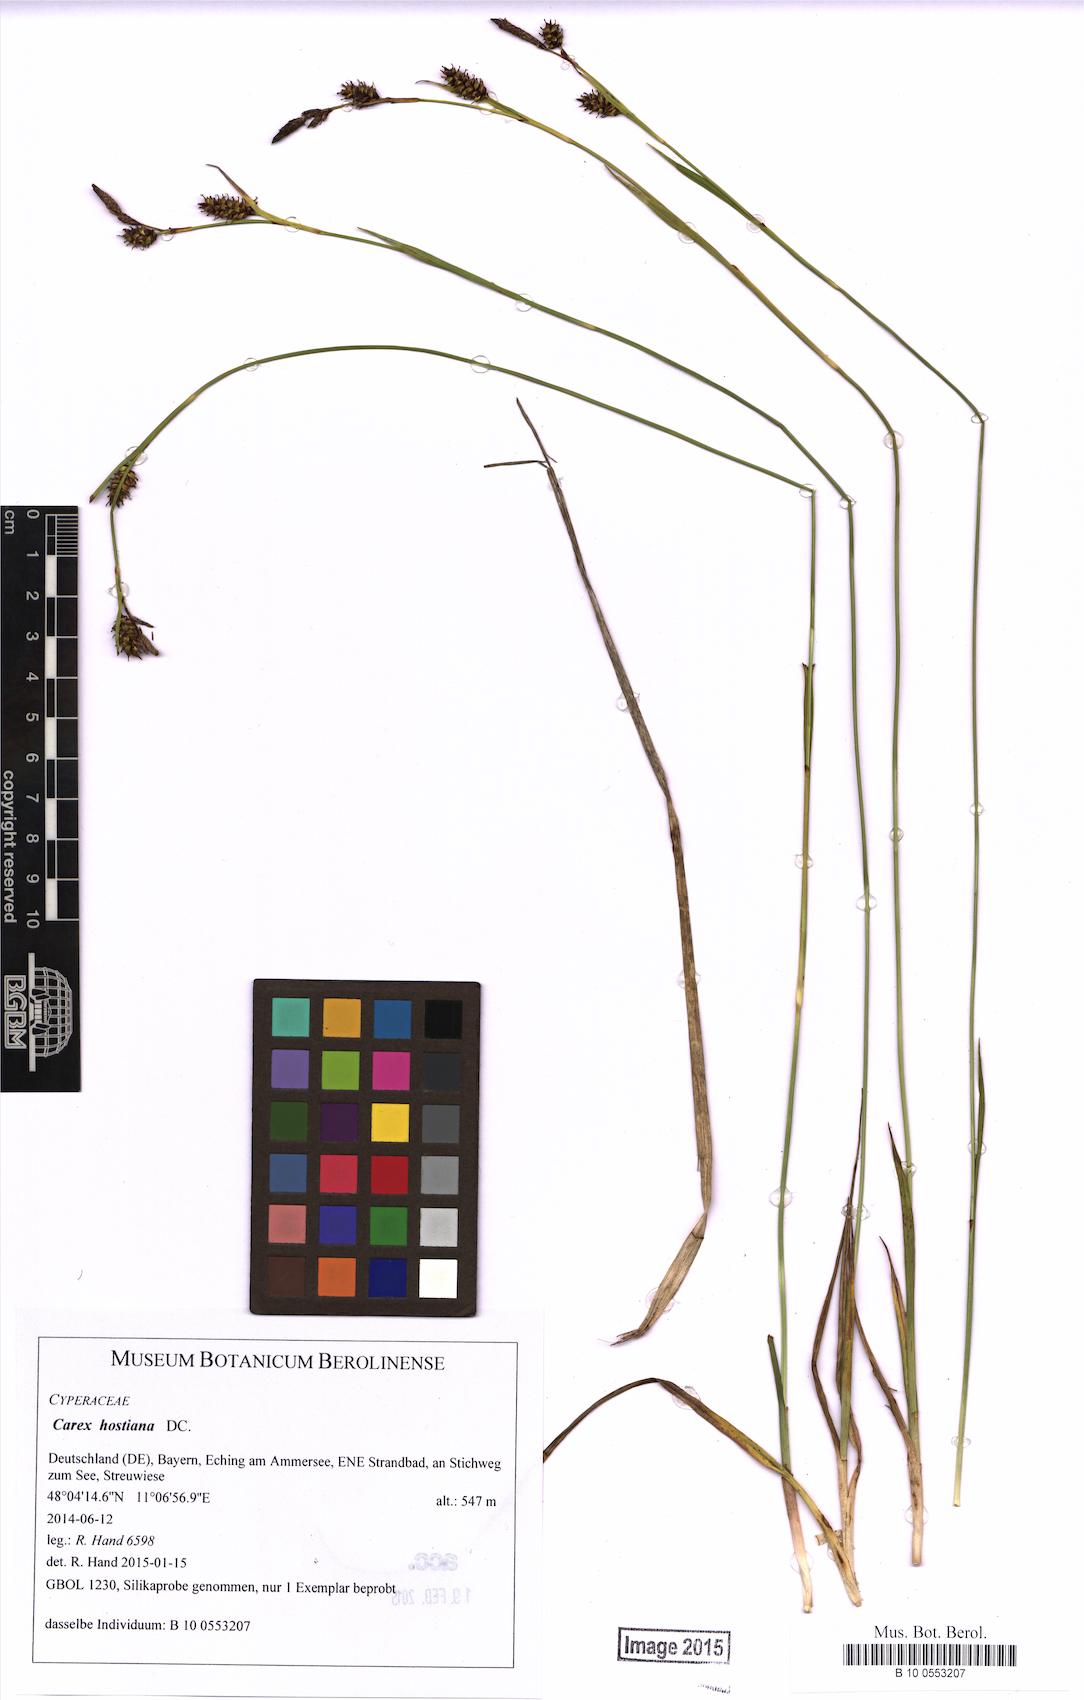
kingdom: Plantae
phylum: Tracheophyta
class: Liliopsida
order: Poales
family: Cyperaceae
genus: Carex
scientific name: Carex appropinquata
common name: Fibrous tussock-sedge
